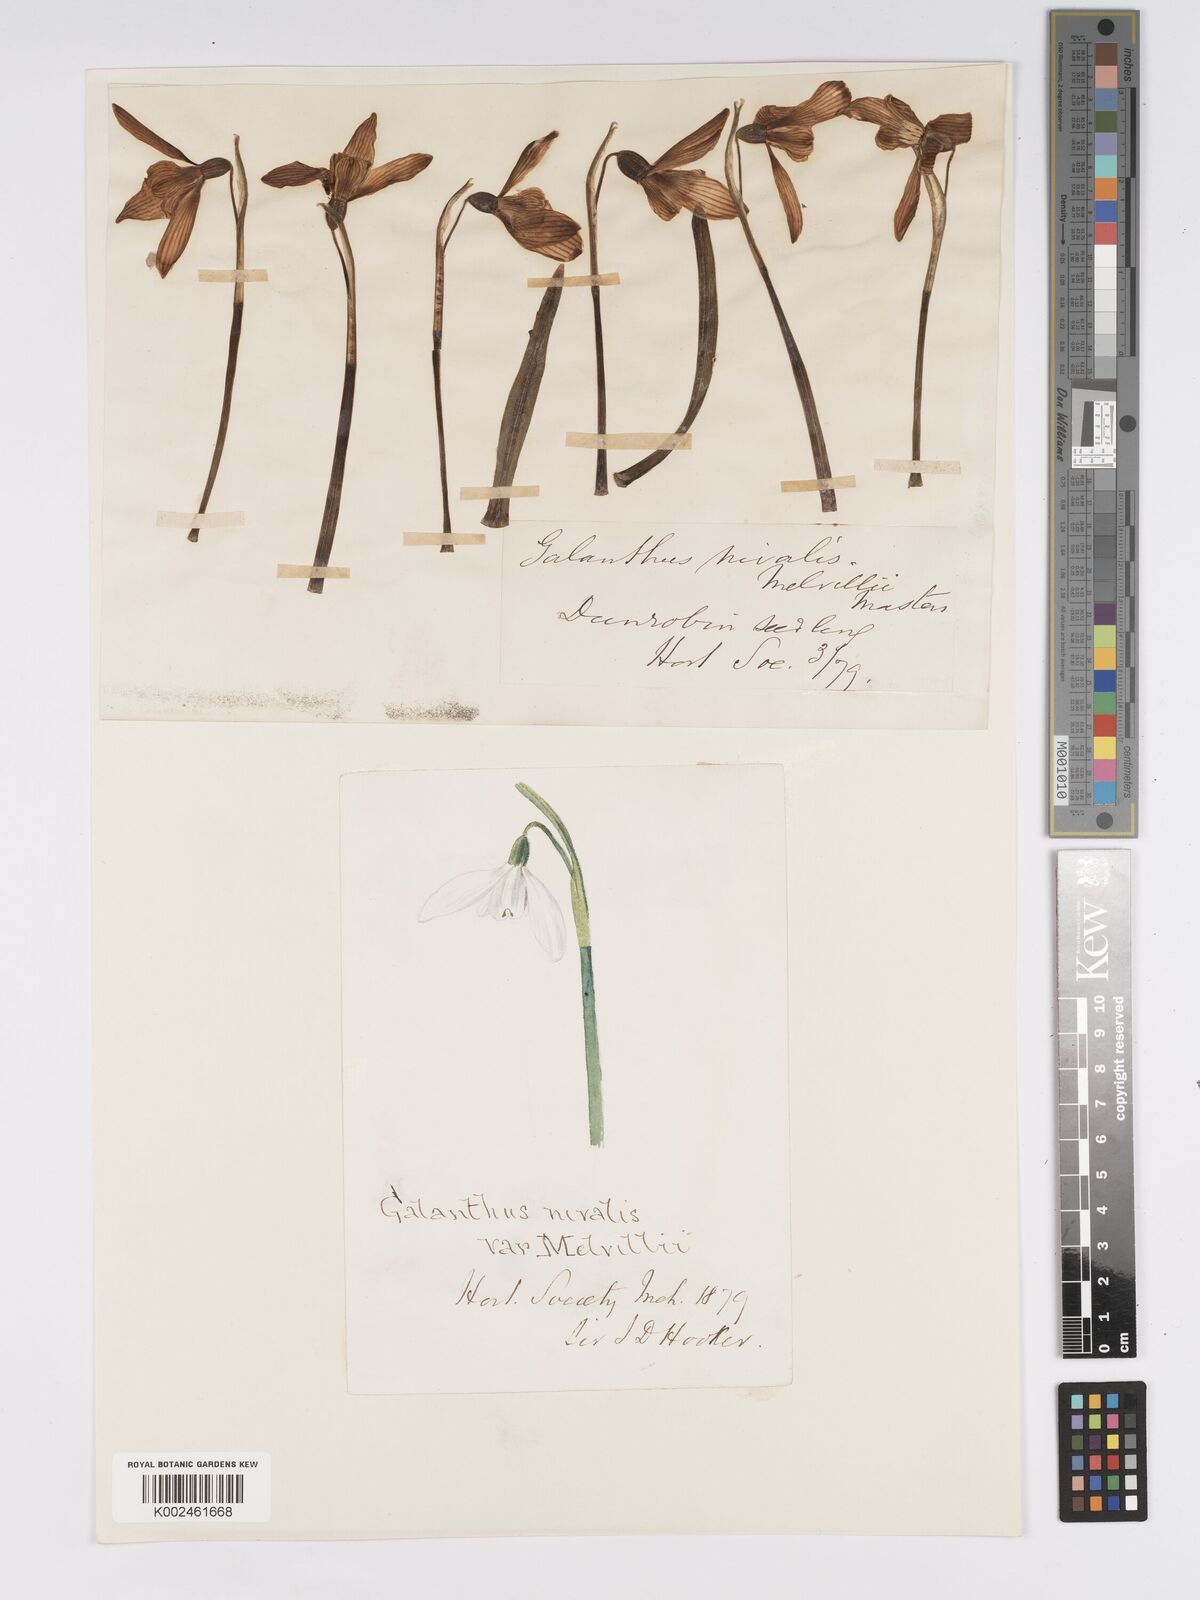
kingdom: Plantae
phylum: Tracheophyta
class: Liliopsida
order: Asparagales
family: Amaryllidaceae
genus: Galanthus
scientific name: Galanthus
